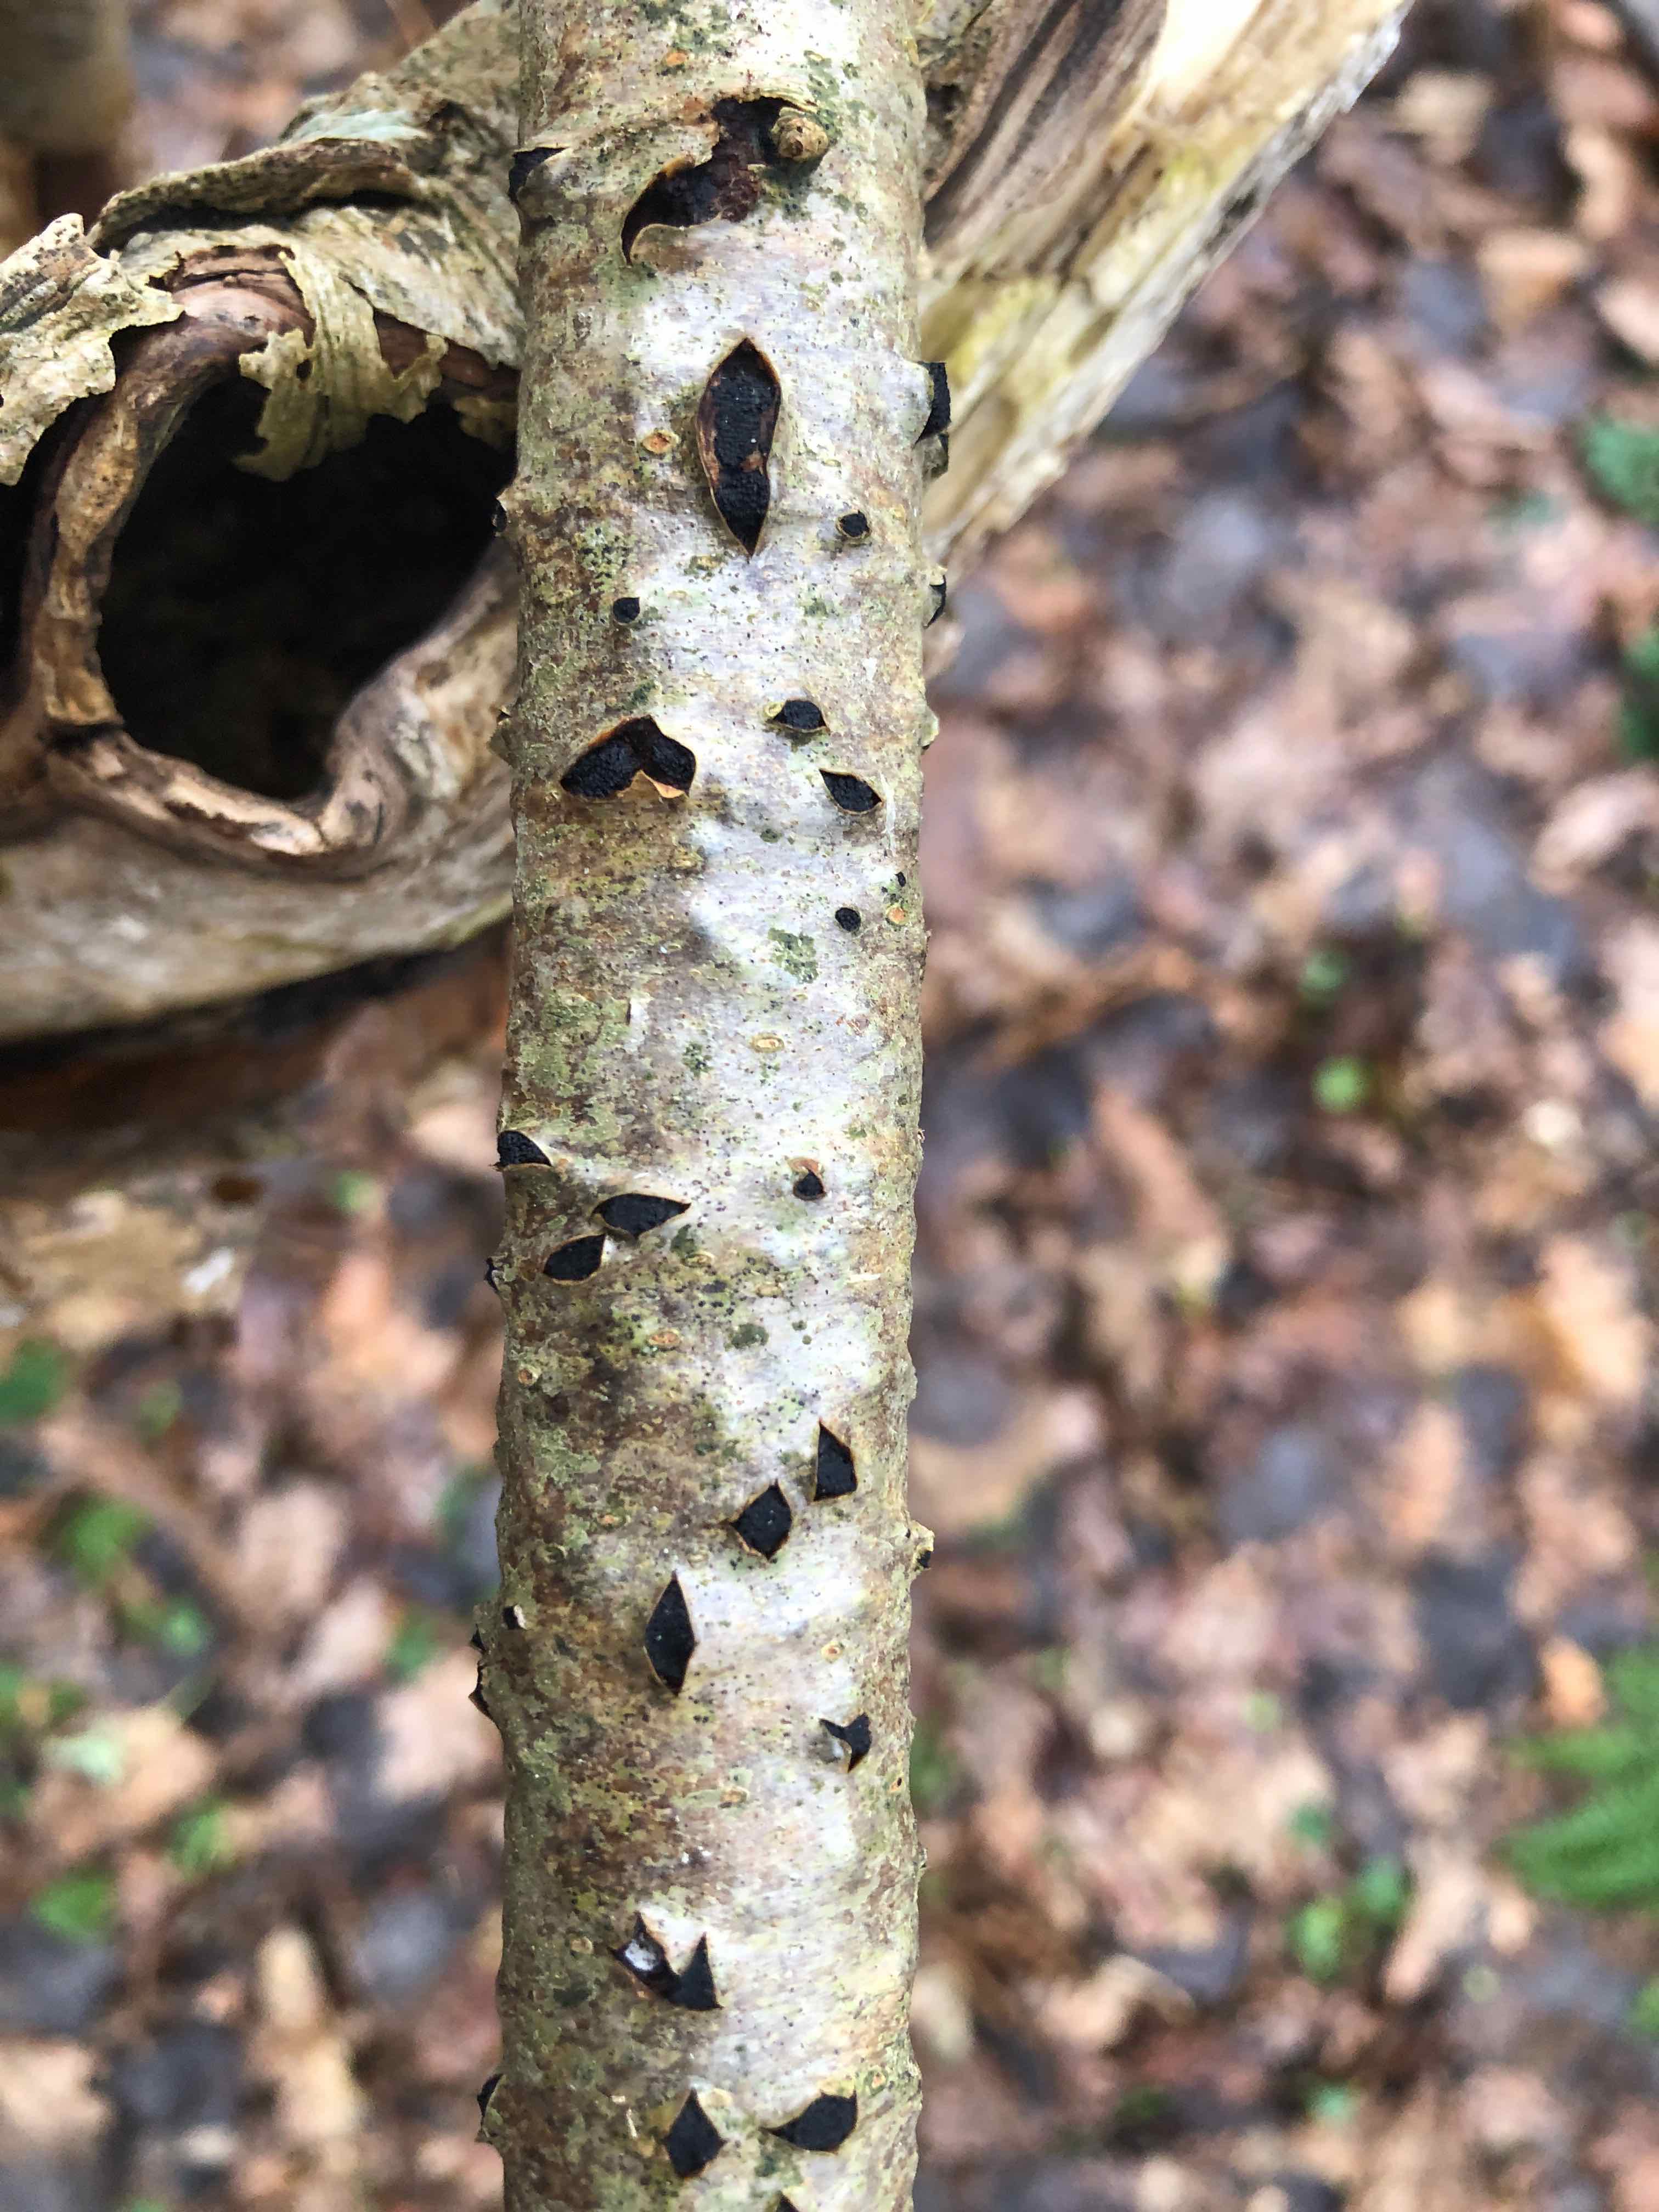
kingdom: Fungi
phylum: Ascomycota
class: Sordariomycetes
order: Xylariales
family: Diatrypaceae
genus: Eutypella
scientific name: Eutypella sorbi
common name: rønne-kulskorpe
